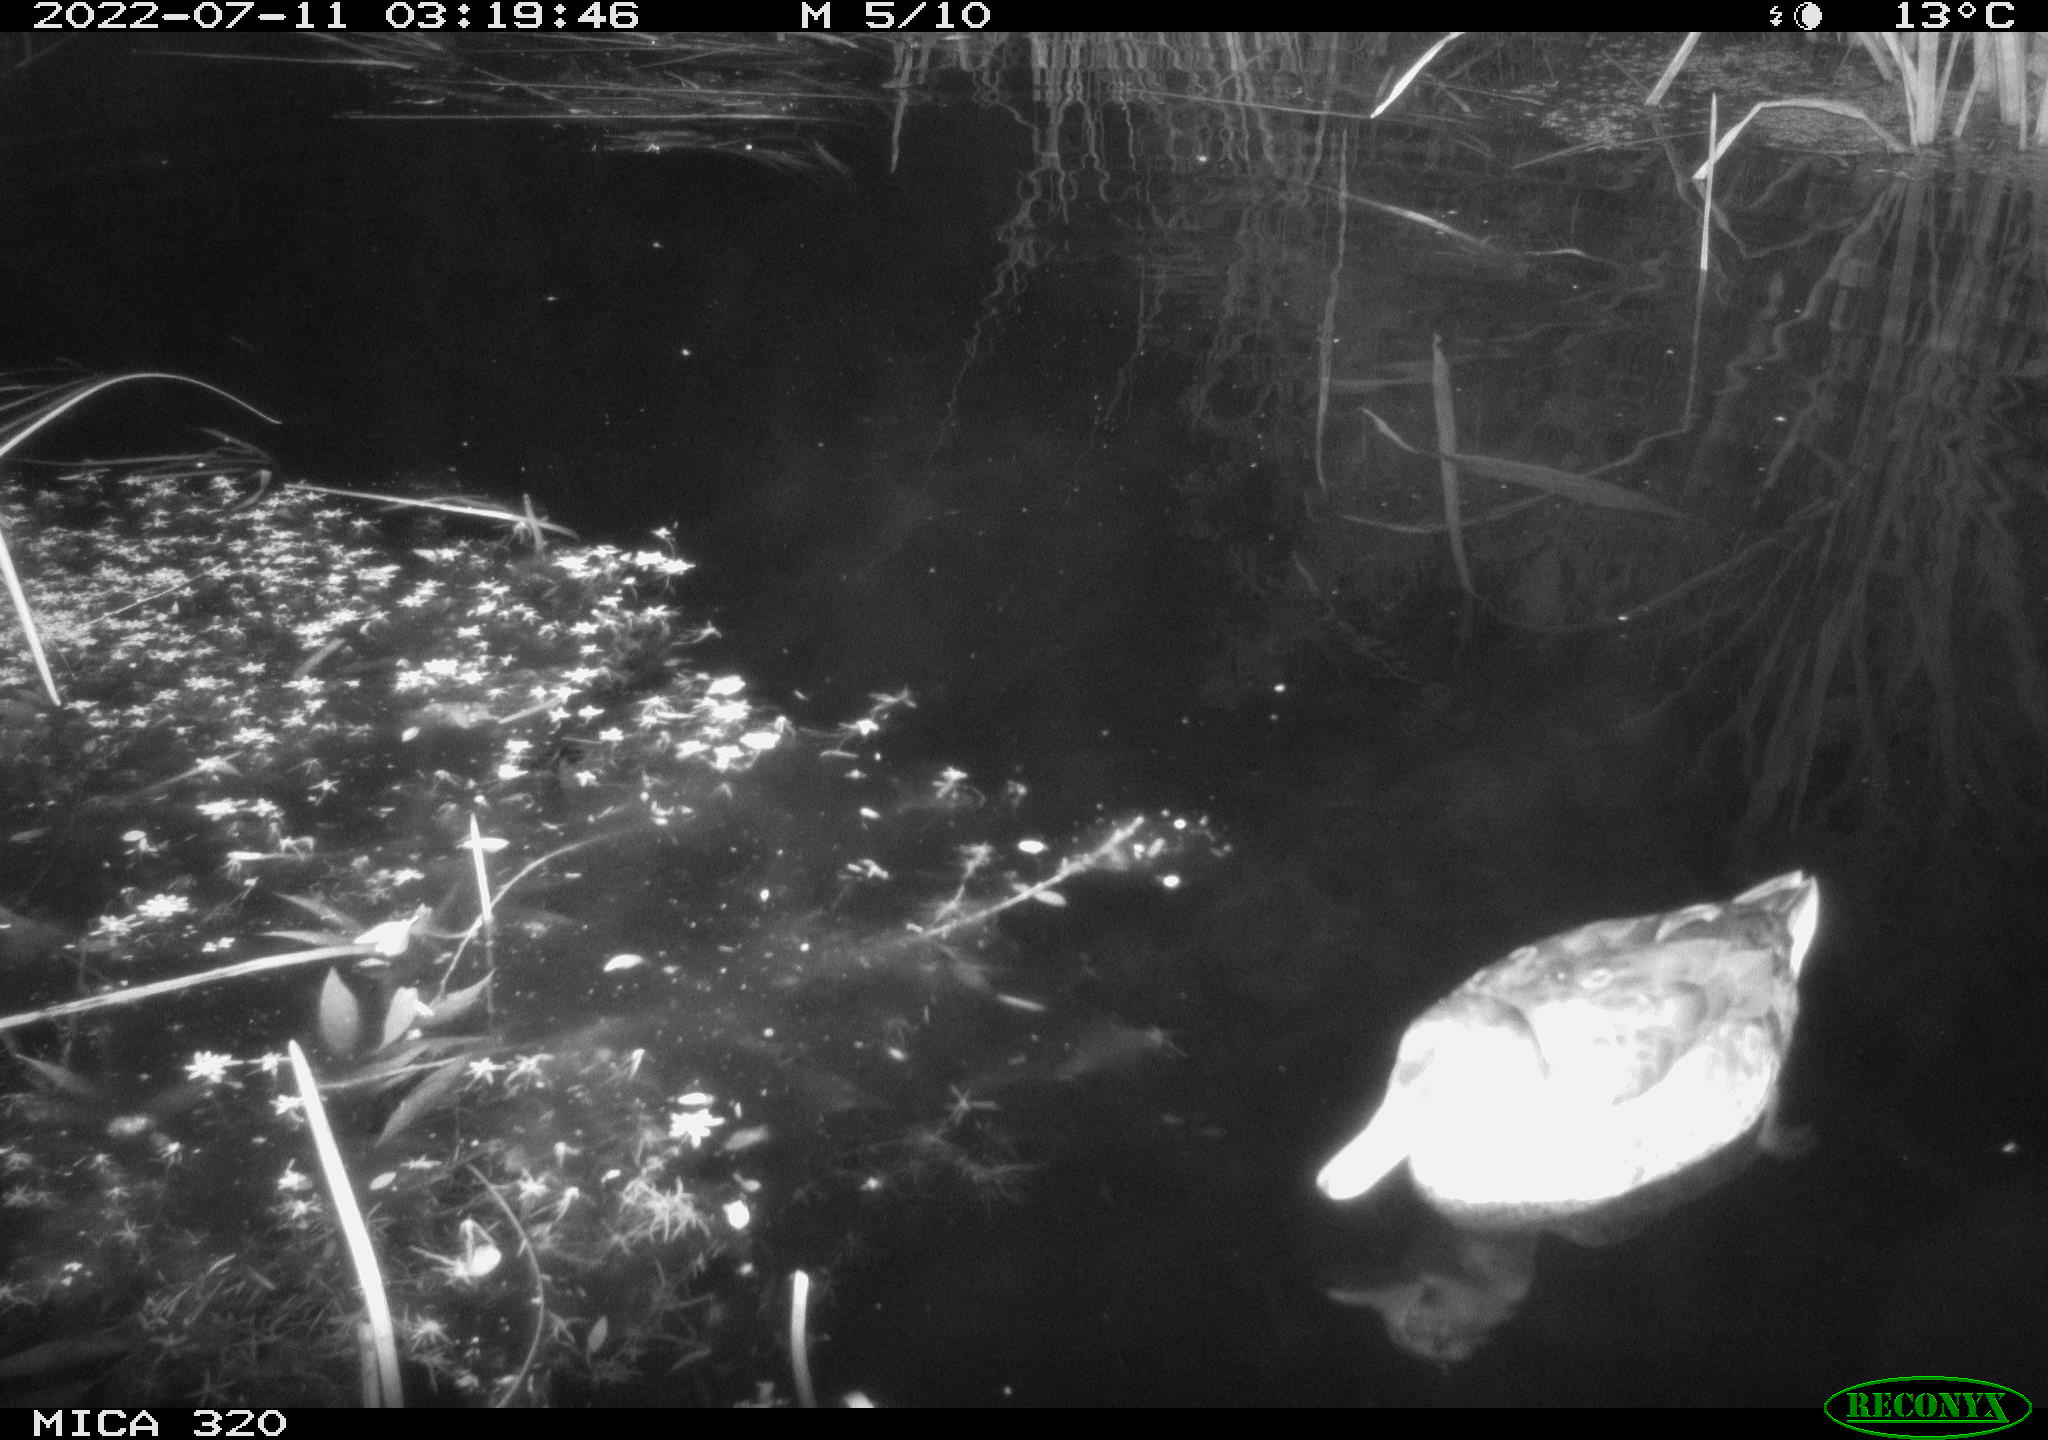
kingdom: Animalia
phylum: Chordata
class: Aves
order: Anseriformes
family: Anatidae
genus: Anas
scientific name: Anas platyrhynchos
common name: Mallard
